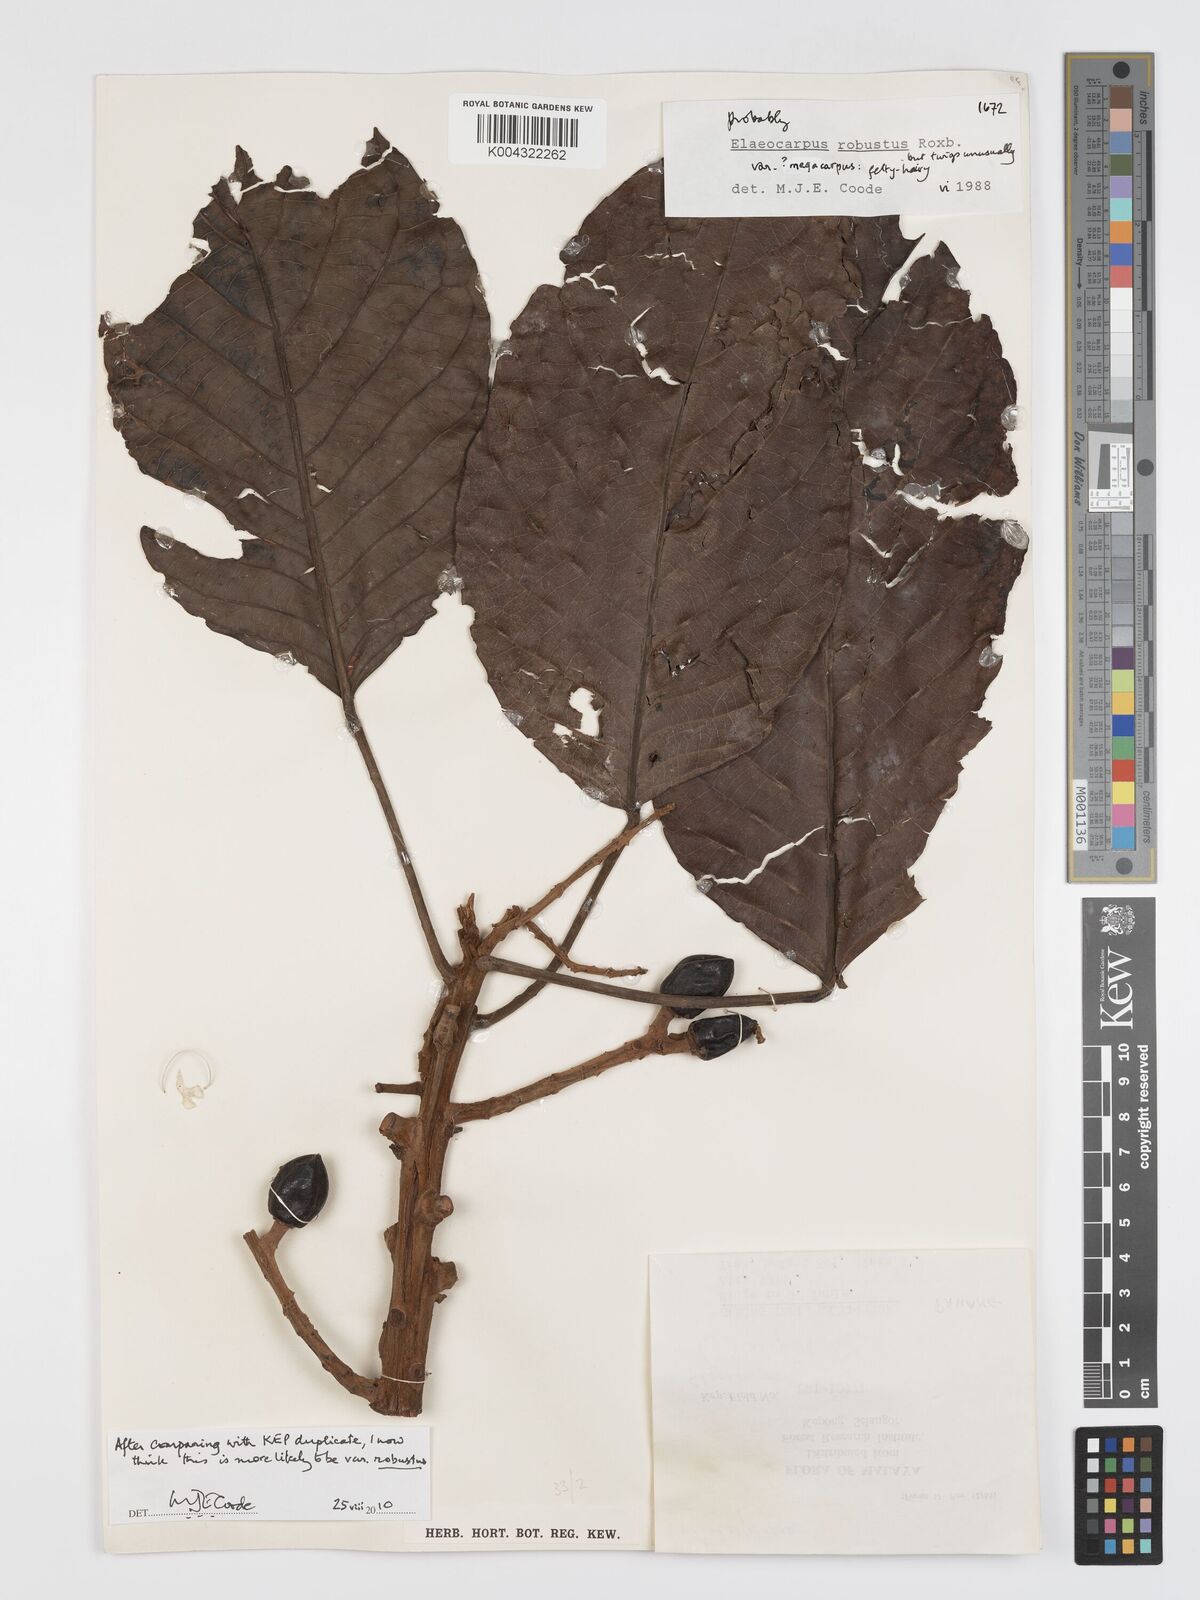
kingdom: Plantae
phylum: Tracheophyta
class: Magnoliopsida
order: Oxalidales
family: Elaeocarpaceae
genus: Elaeocarpus
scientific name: Elaeocarpus robustus
